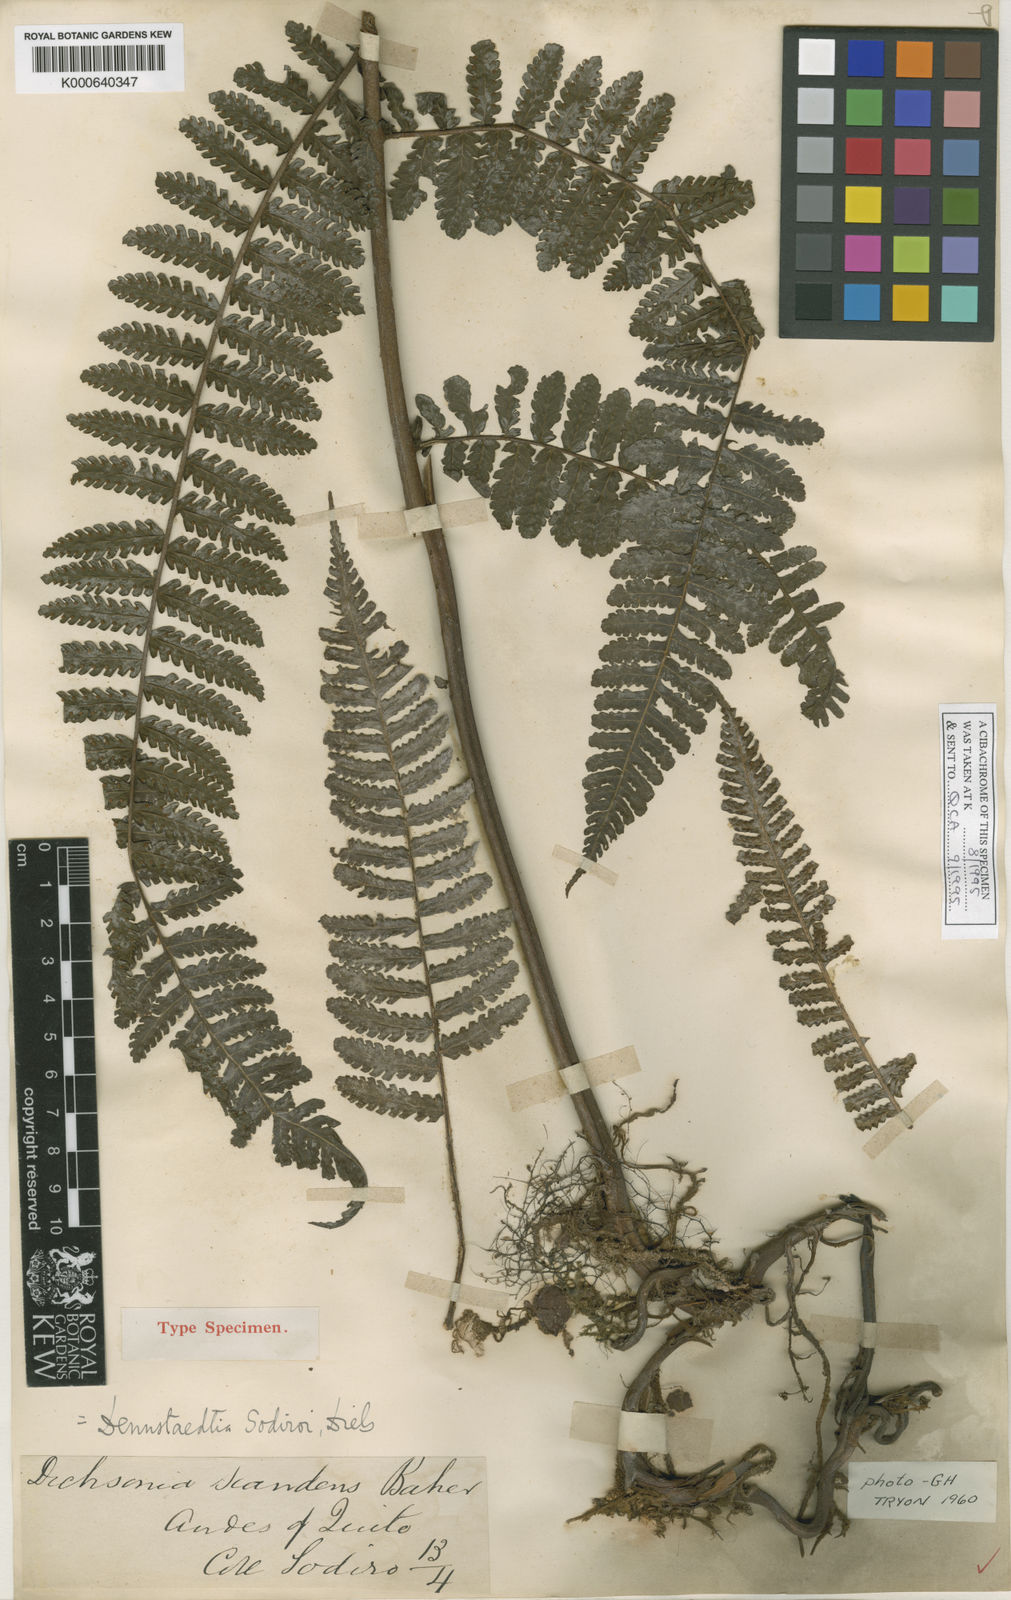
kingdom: Plantae
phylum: Tracheophyta
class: Polypodiopsida
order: Polypodiales
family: Dennstaedtiaceae
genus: Dennstaedtia
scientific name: Dennstaedtia vagans
